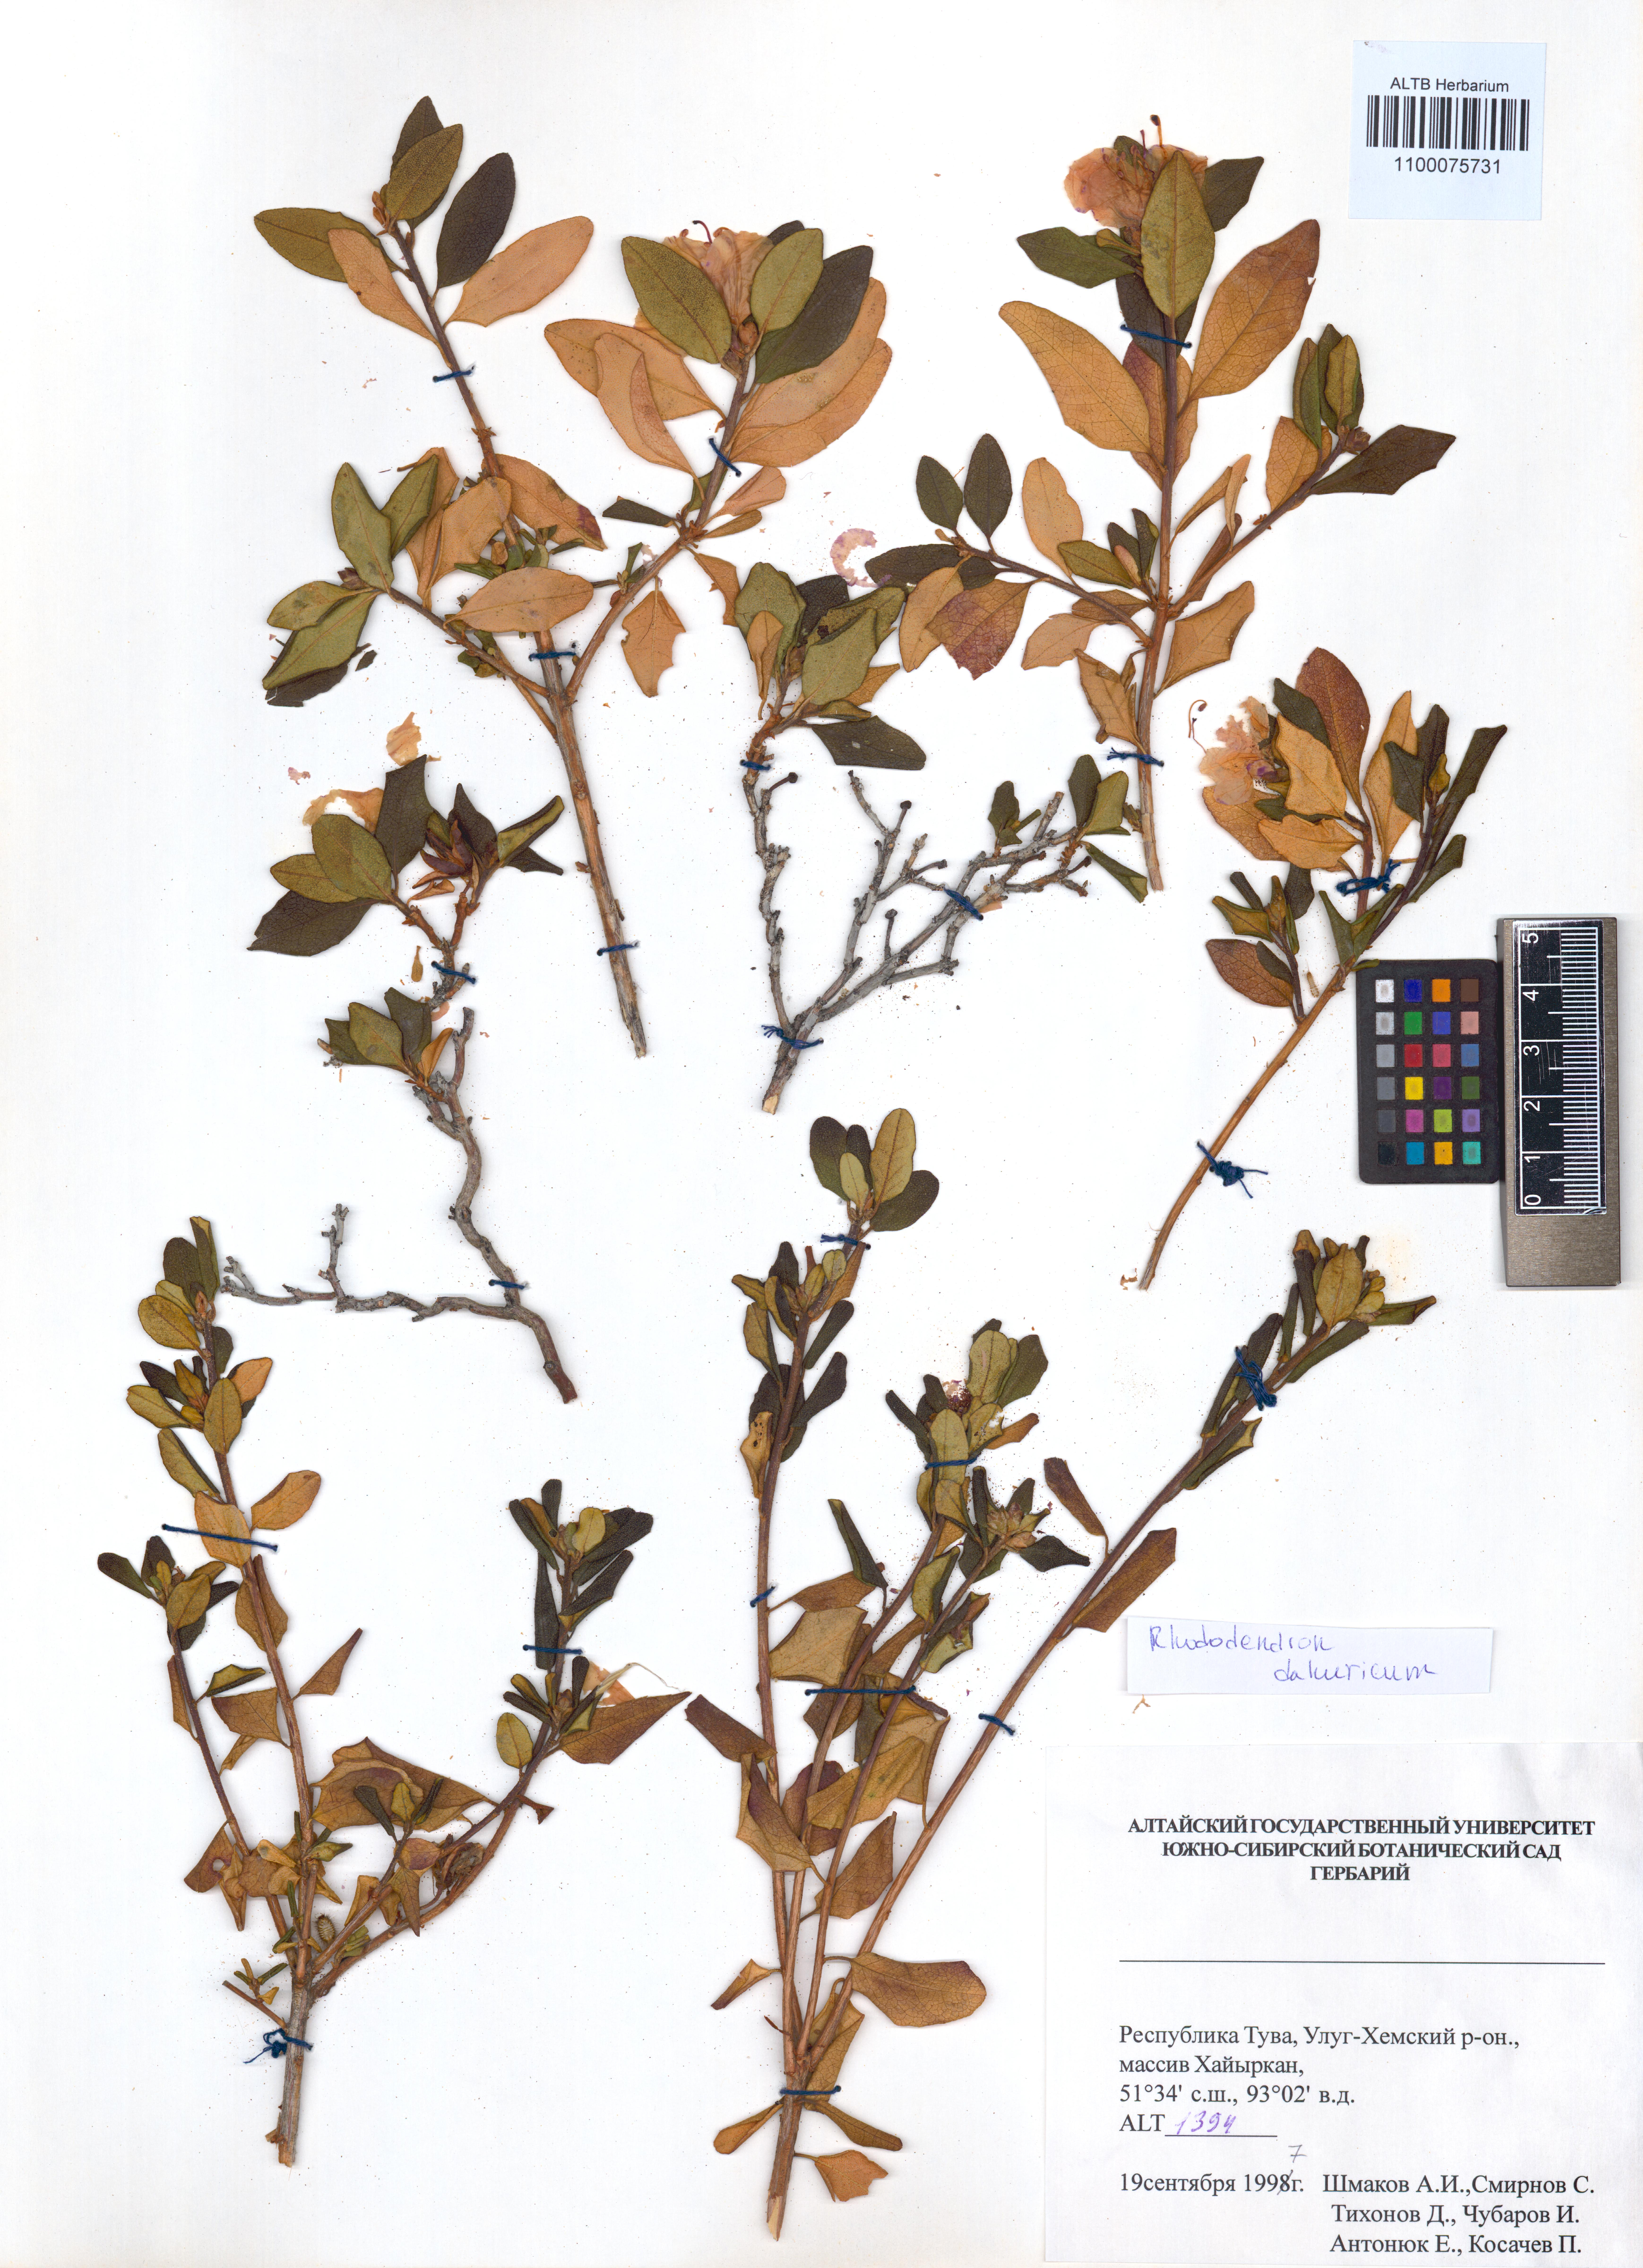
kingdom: Plantae
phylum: Tracheophyta
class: Magnoliopsida
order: Ericales
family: Ericaceae
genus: Rhododendron
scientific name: Rhododendron dauricum
